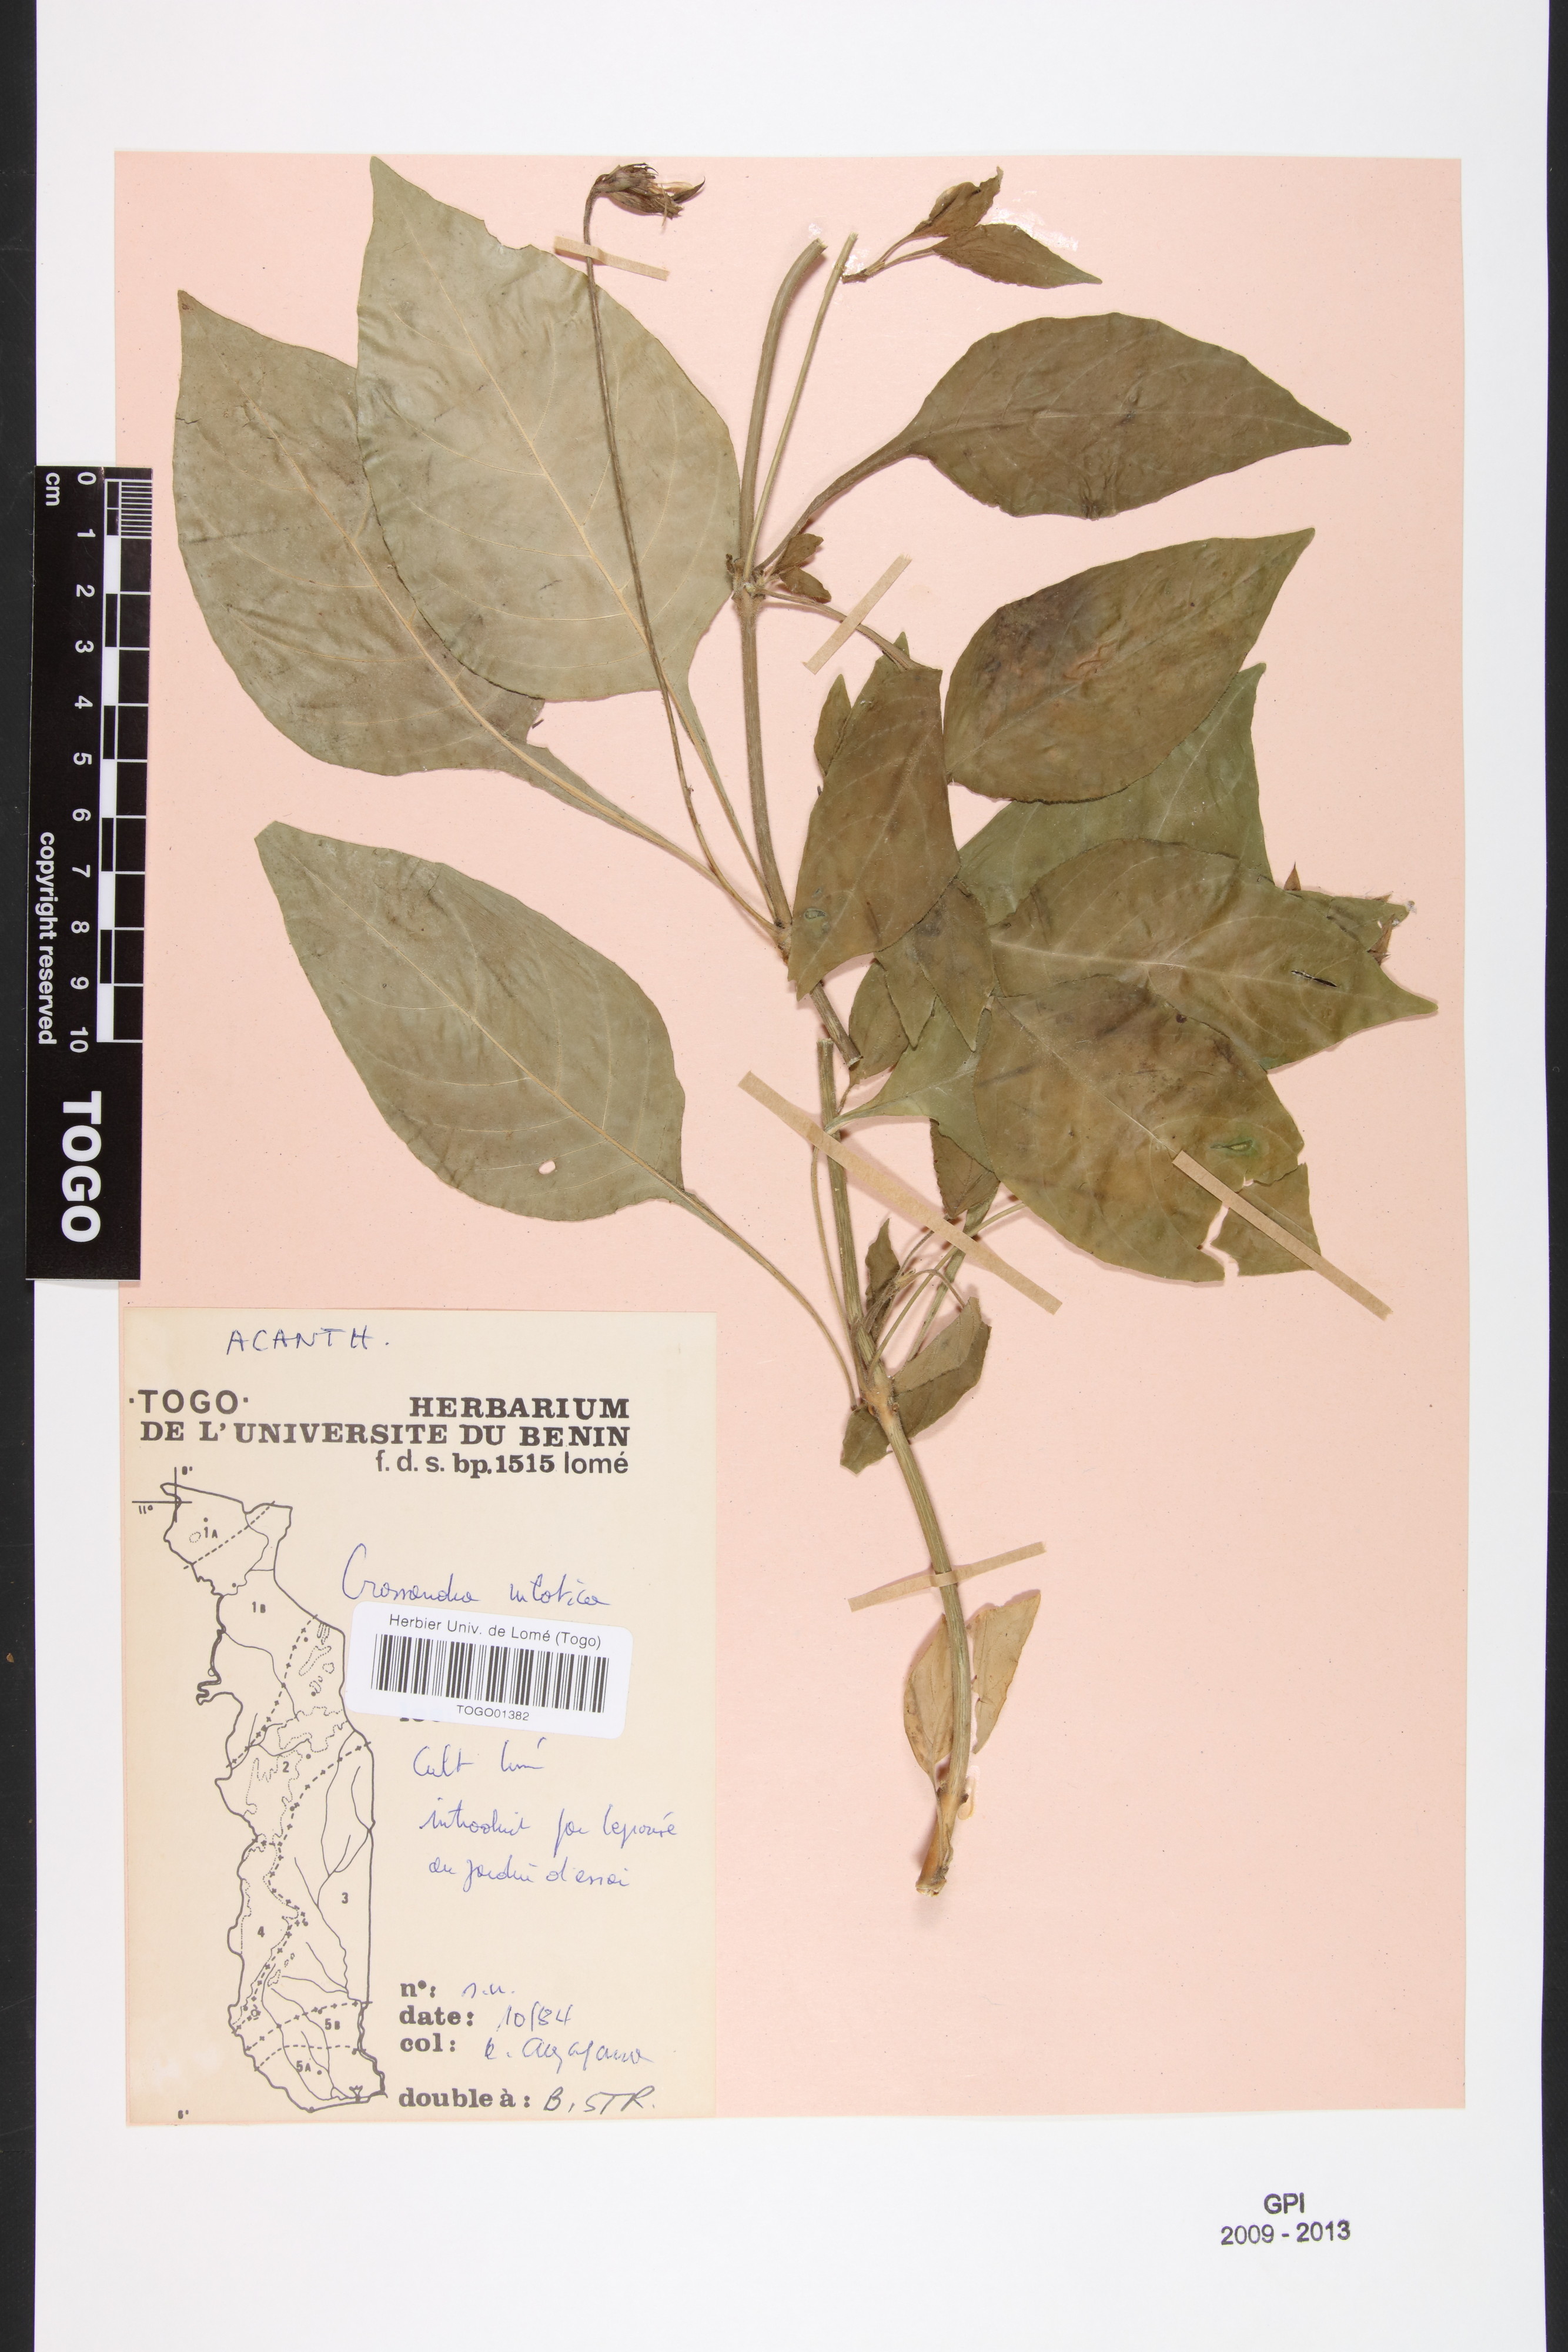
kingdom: Plantae
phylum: Tracheophyta
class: Magnoliopsida
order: Lamiales
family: Acanthaceae
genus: Crossandra
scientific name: Crossandra nilotica
